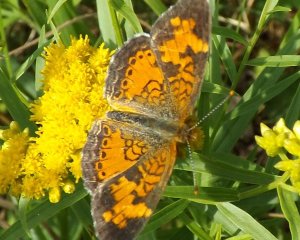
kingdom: Animalia
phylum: Arthropoda
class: Insecta
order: Lepidoptera
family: Nymphalidae
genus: Phyciodes
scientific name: Phyciodes tharos
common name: Northern Crescent
